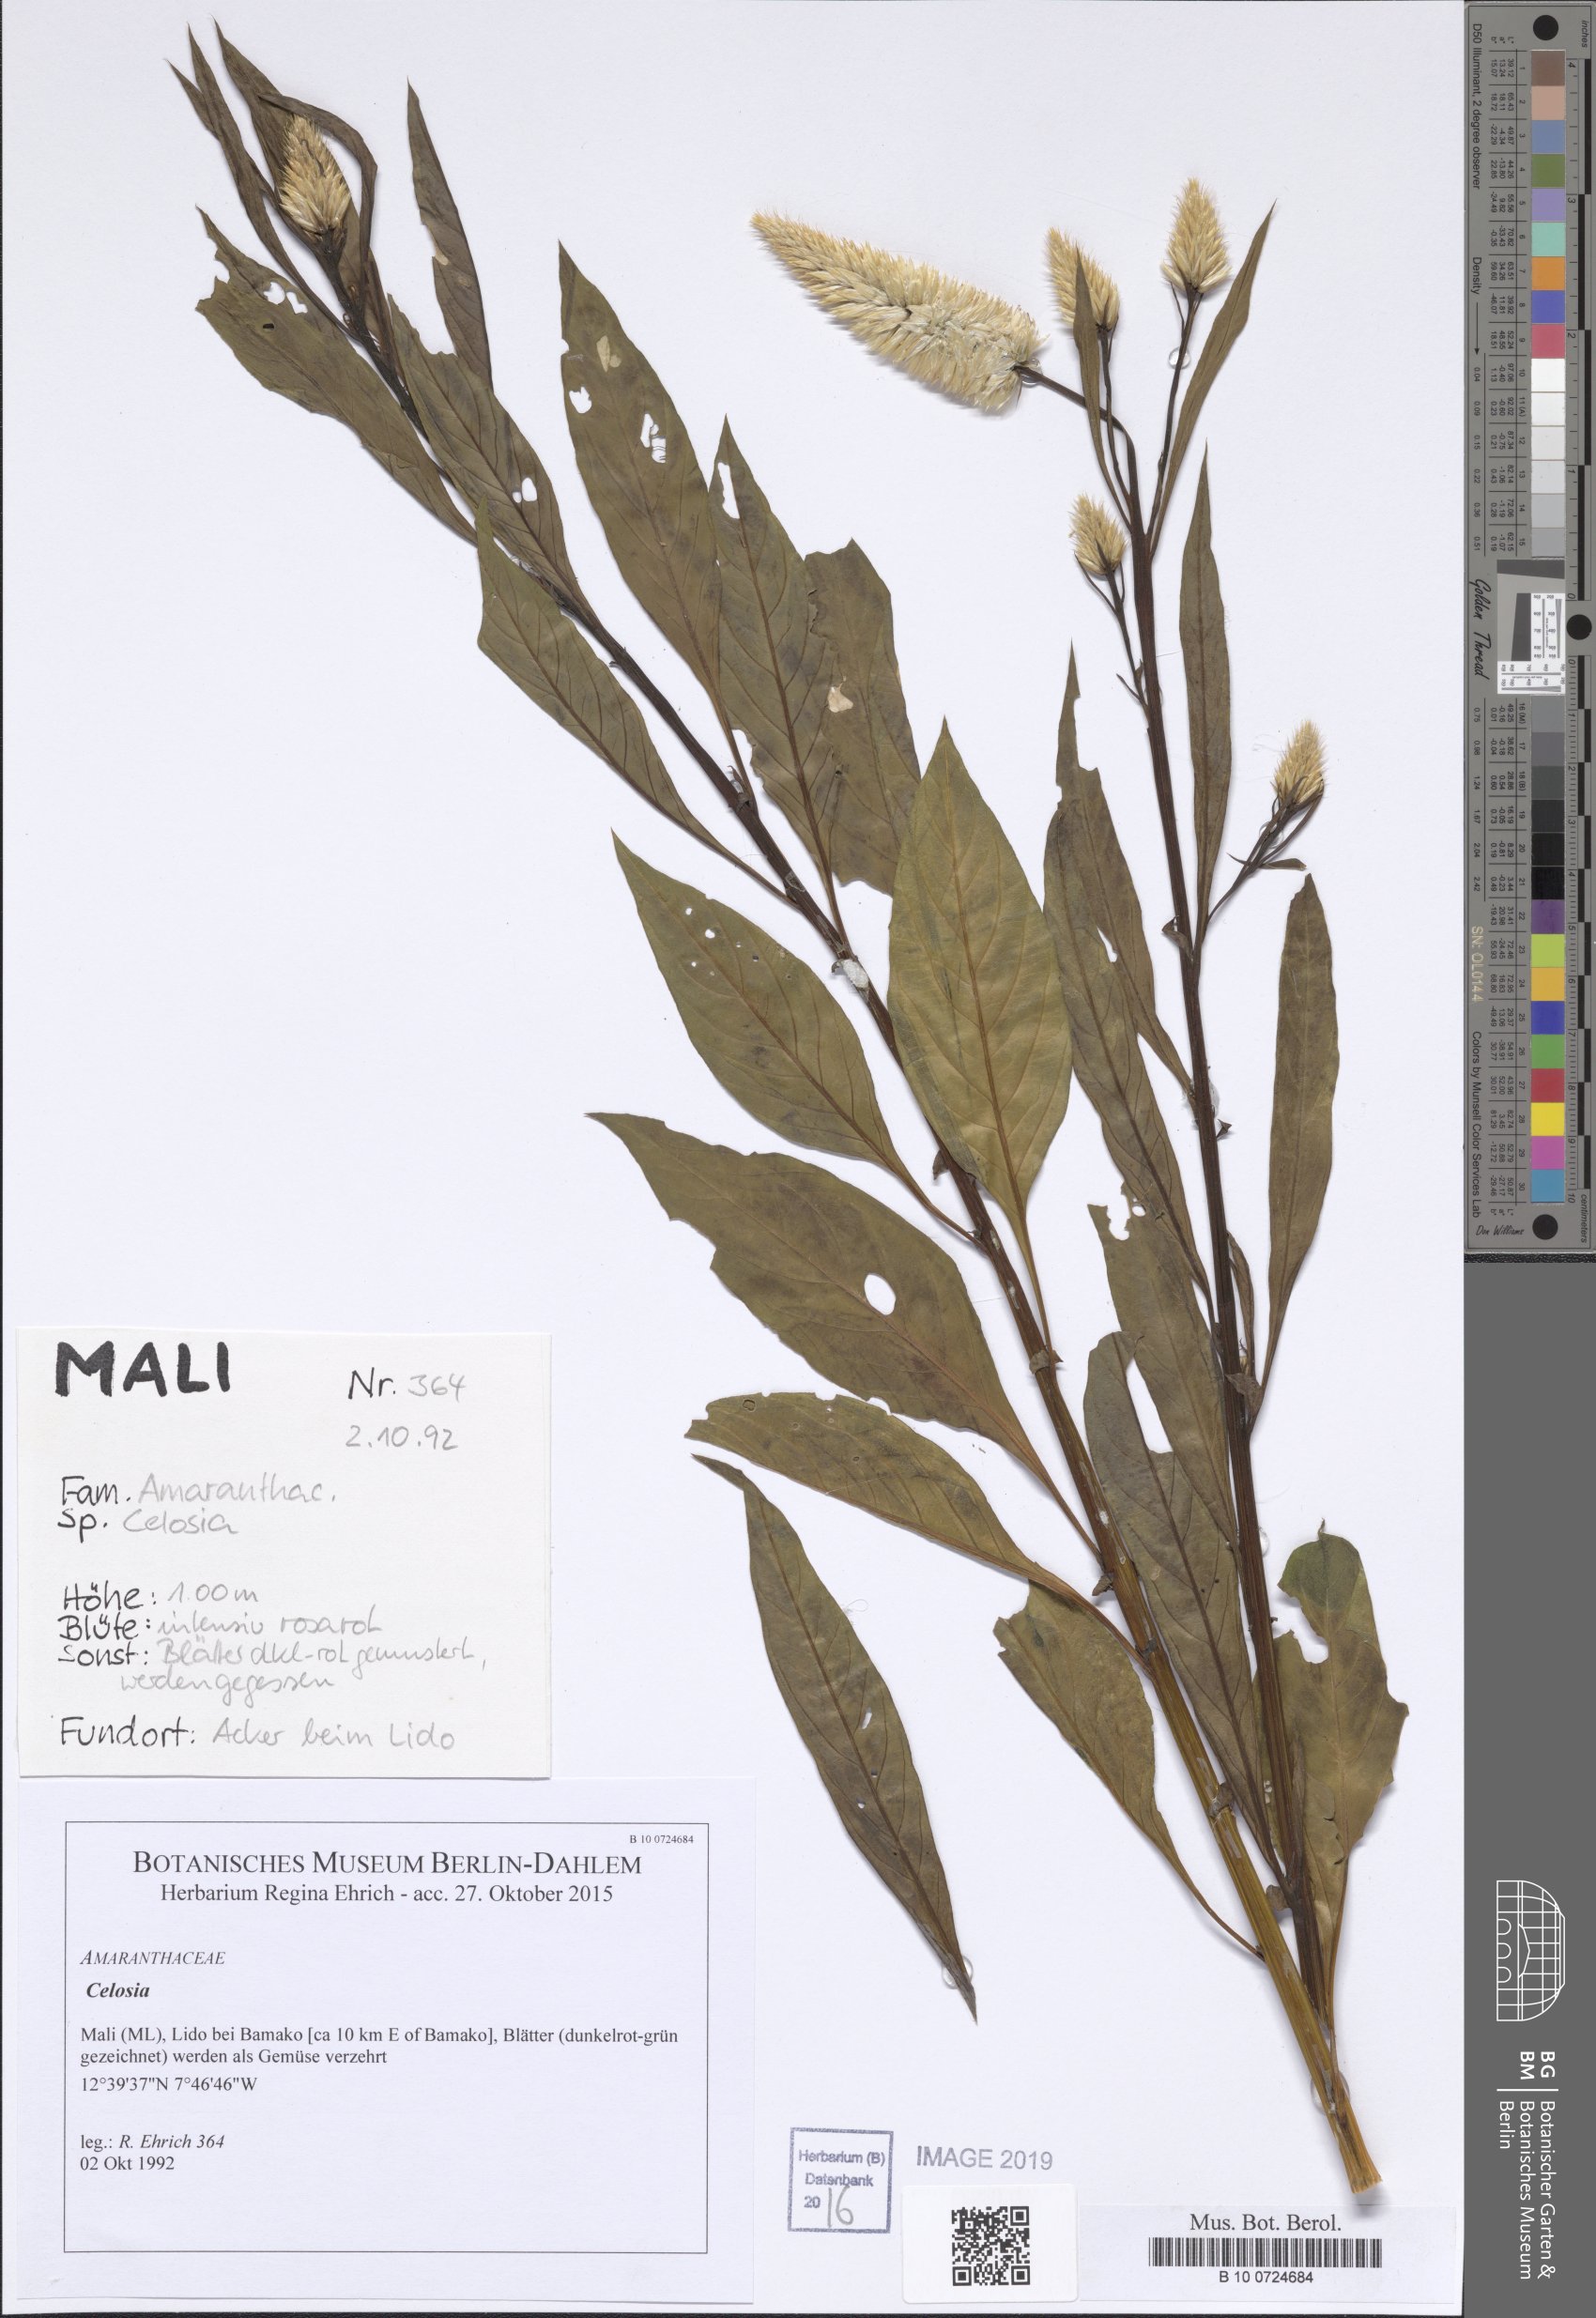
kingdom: Plantae
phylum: Tracheophyta
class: Magnoliopsida
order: Caryophyllales
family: Amaranthaceae
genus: Celosia
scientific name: Celosia
